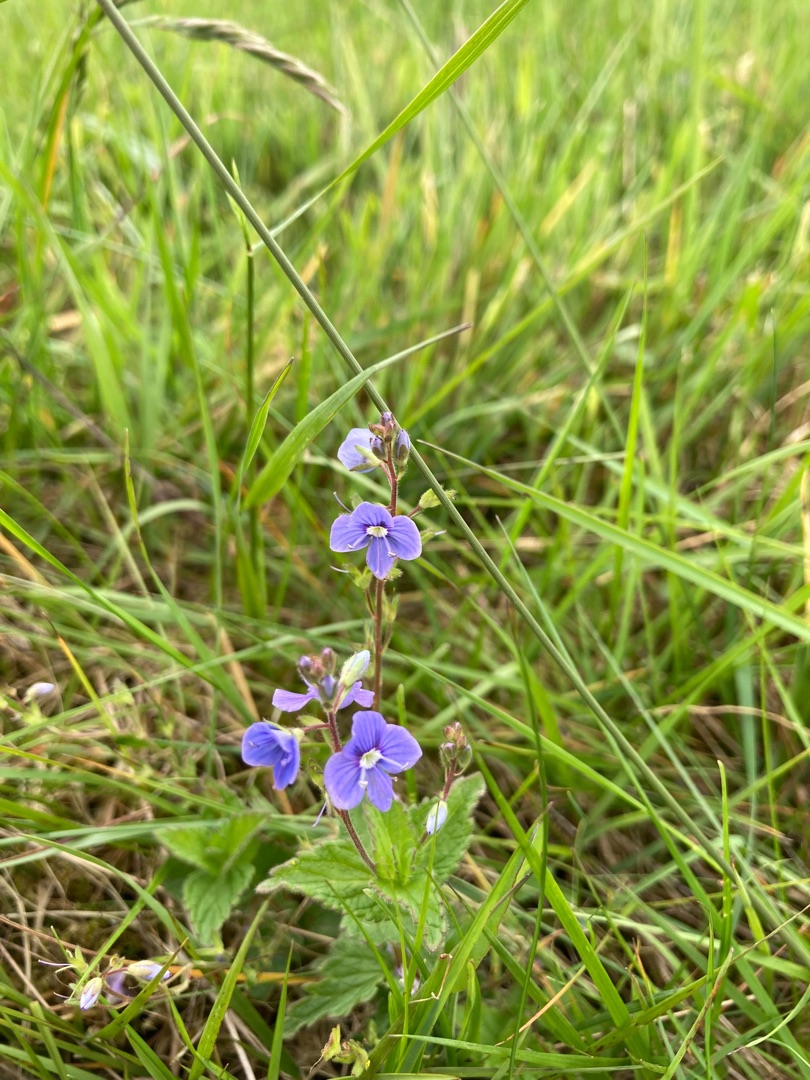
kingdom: Plantae
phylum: Tracheophyta
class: Magnoliopsida
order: Lamiales
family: Plantaginaceae
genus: Veronica
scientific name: Veronica chamaedrys
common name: Tveskægget ærenpris
